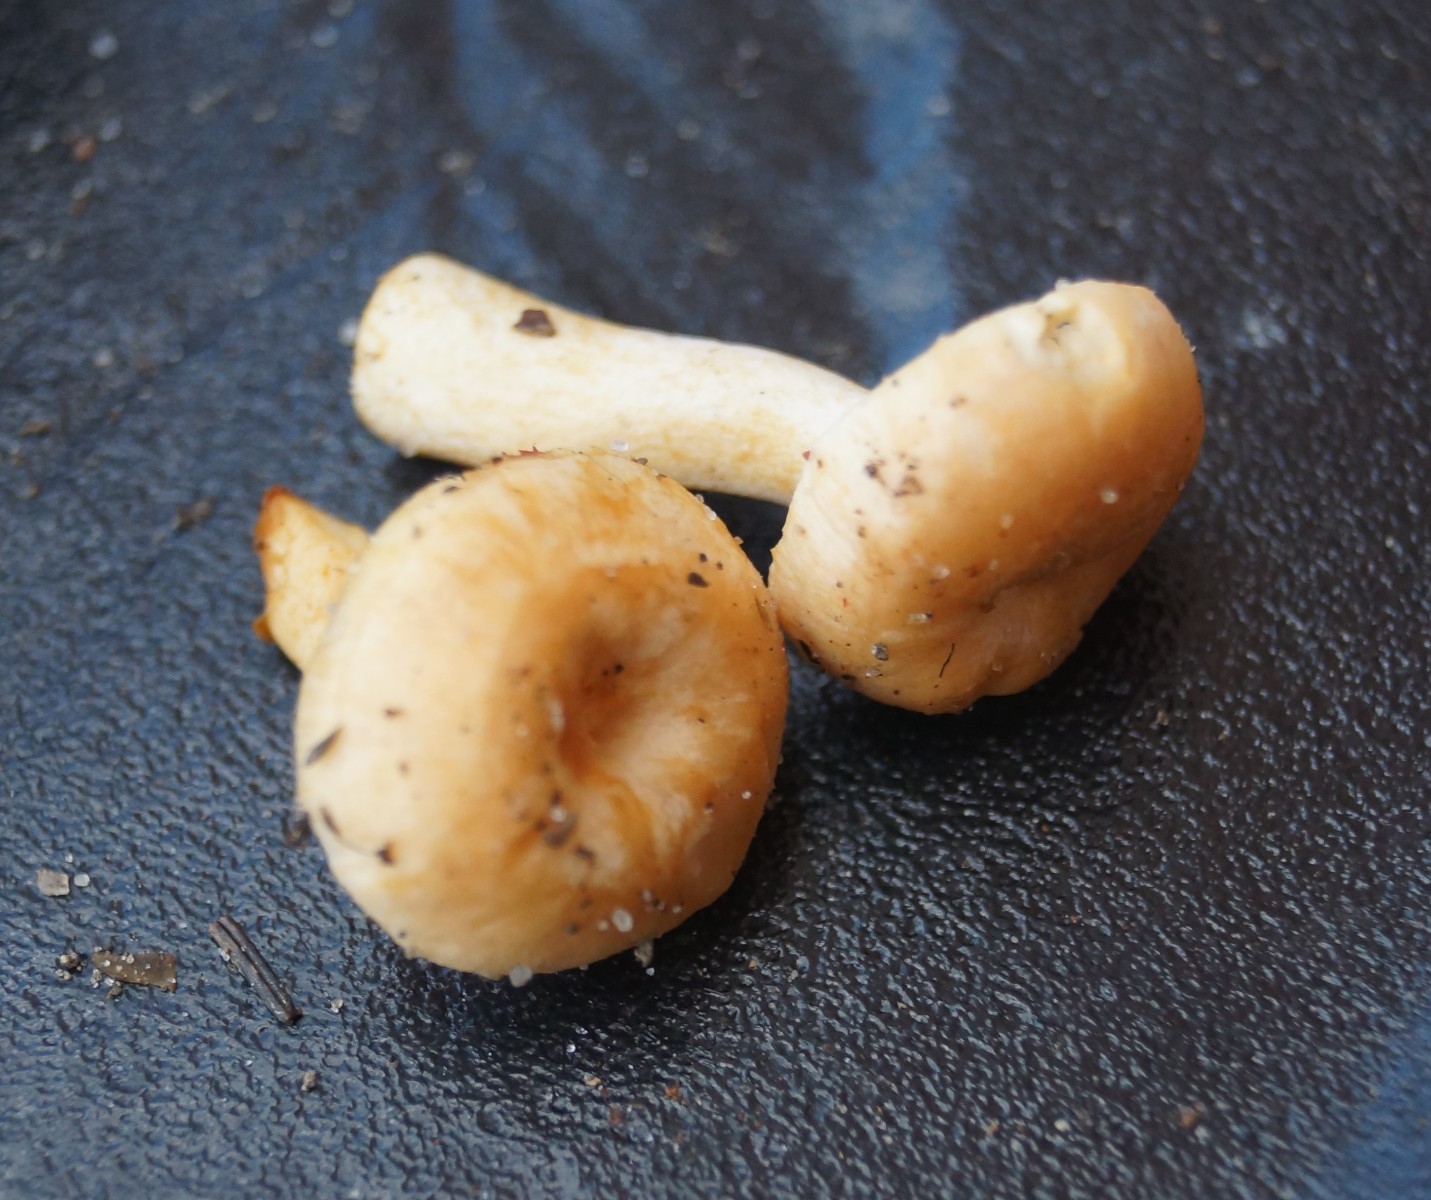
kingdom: Fungi
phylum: Basidiomycota
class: Agaricomycetes
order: Cantharellales
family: Hydnaceae
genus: Hydnum
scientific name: Hydnum umbilicatum
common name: navle-pigsvamp
